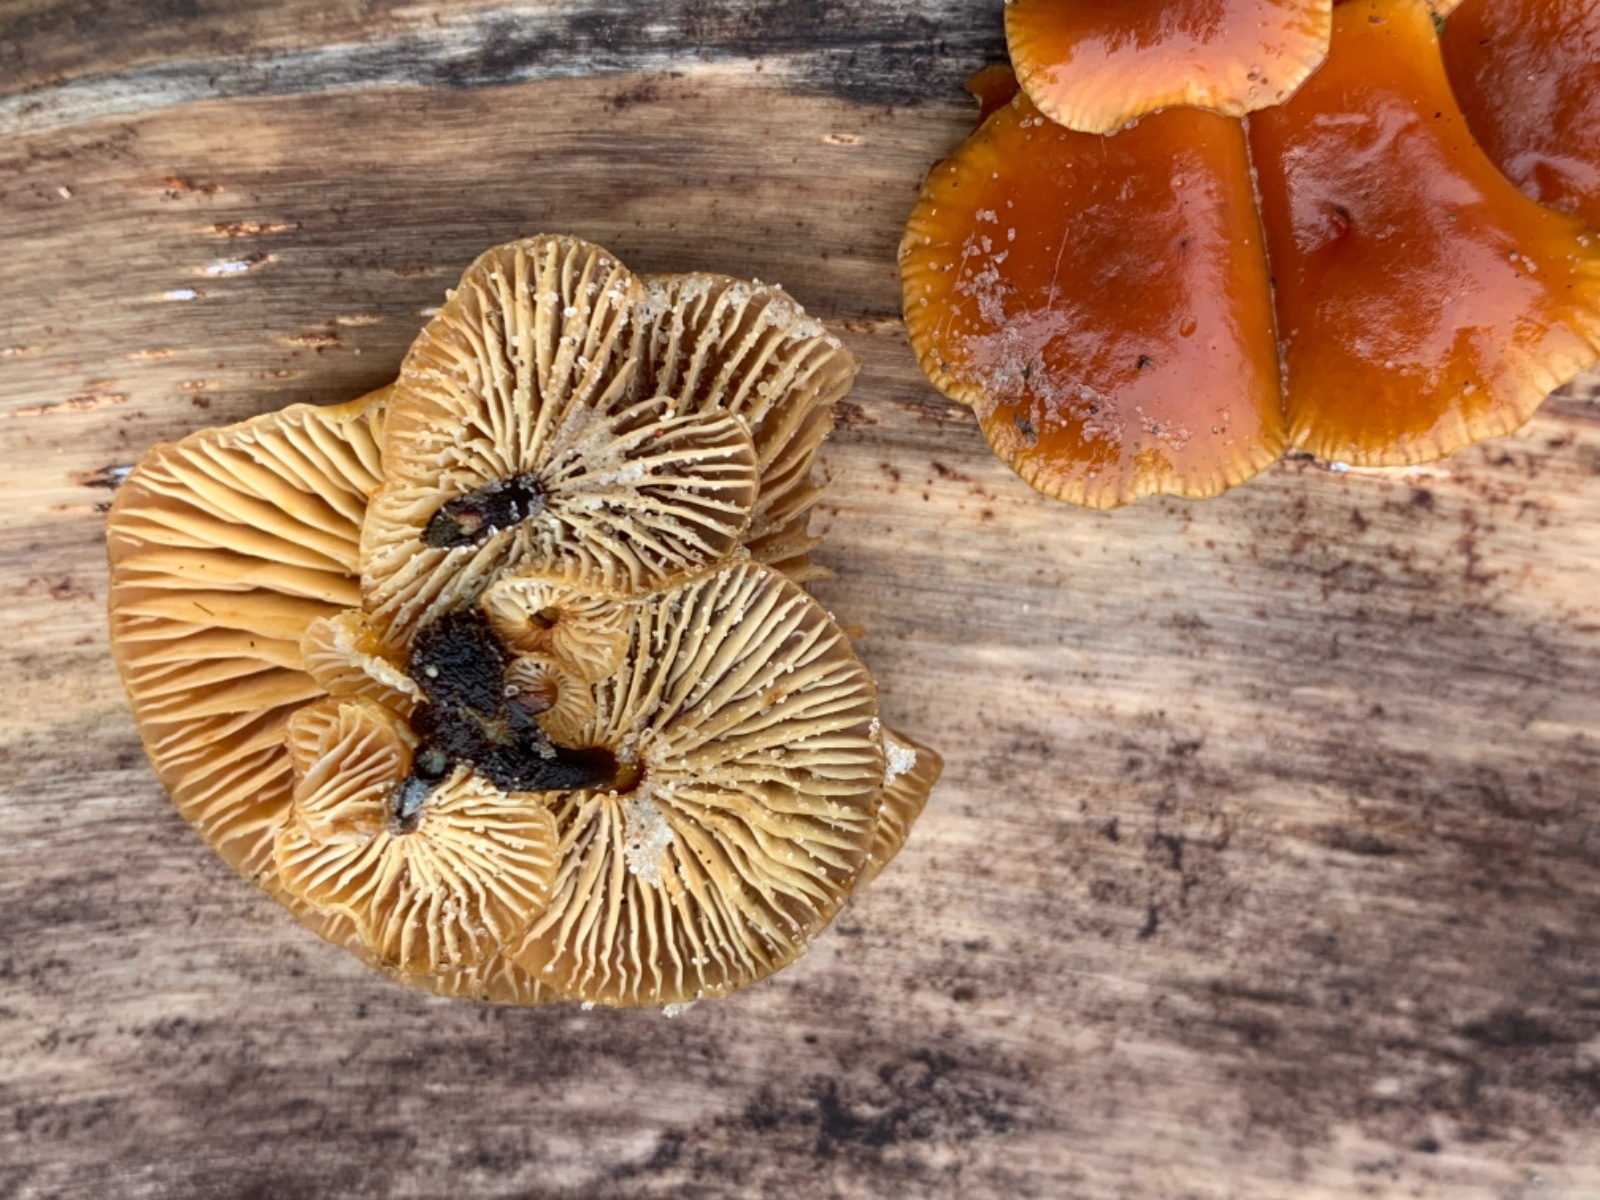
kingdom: Fungi
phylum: Basidiomycota
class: Agaricomycetes
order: Agaricales
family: Physalacriaceae
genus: Flammulina
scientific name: Flammulina velutipes
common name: gul fløjlsfod
